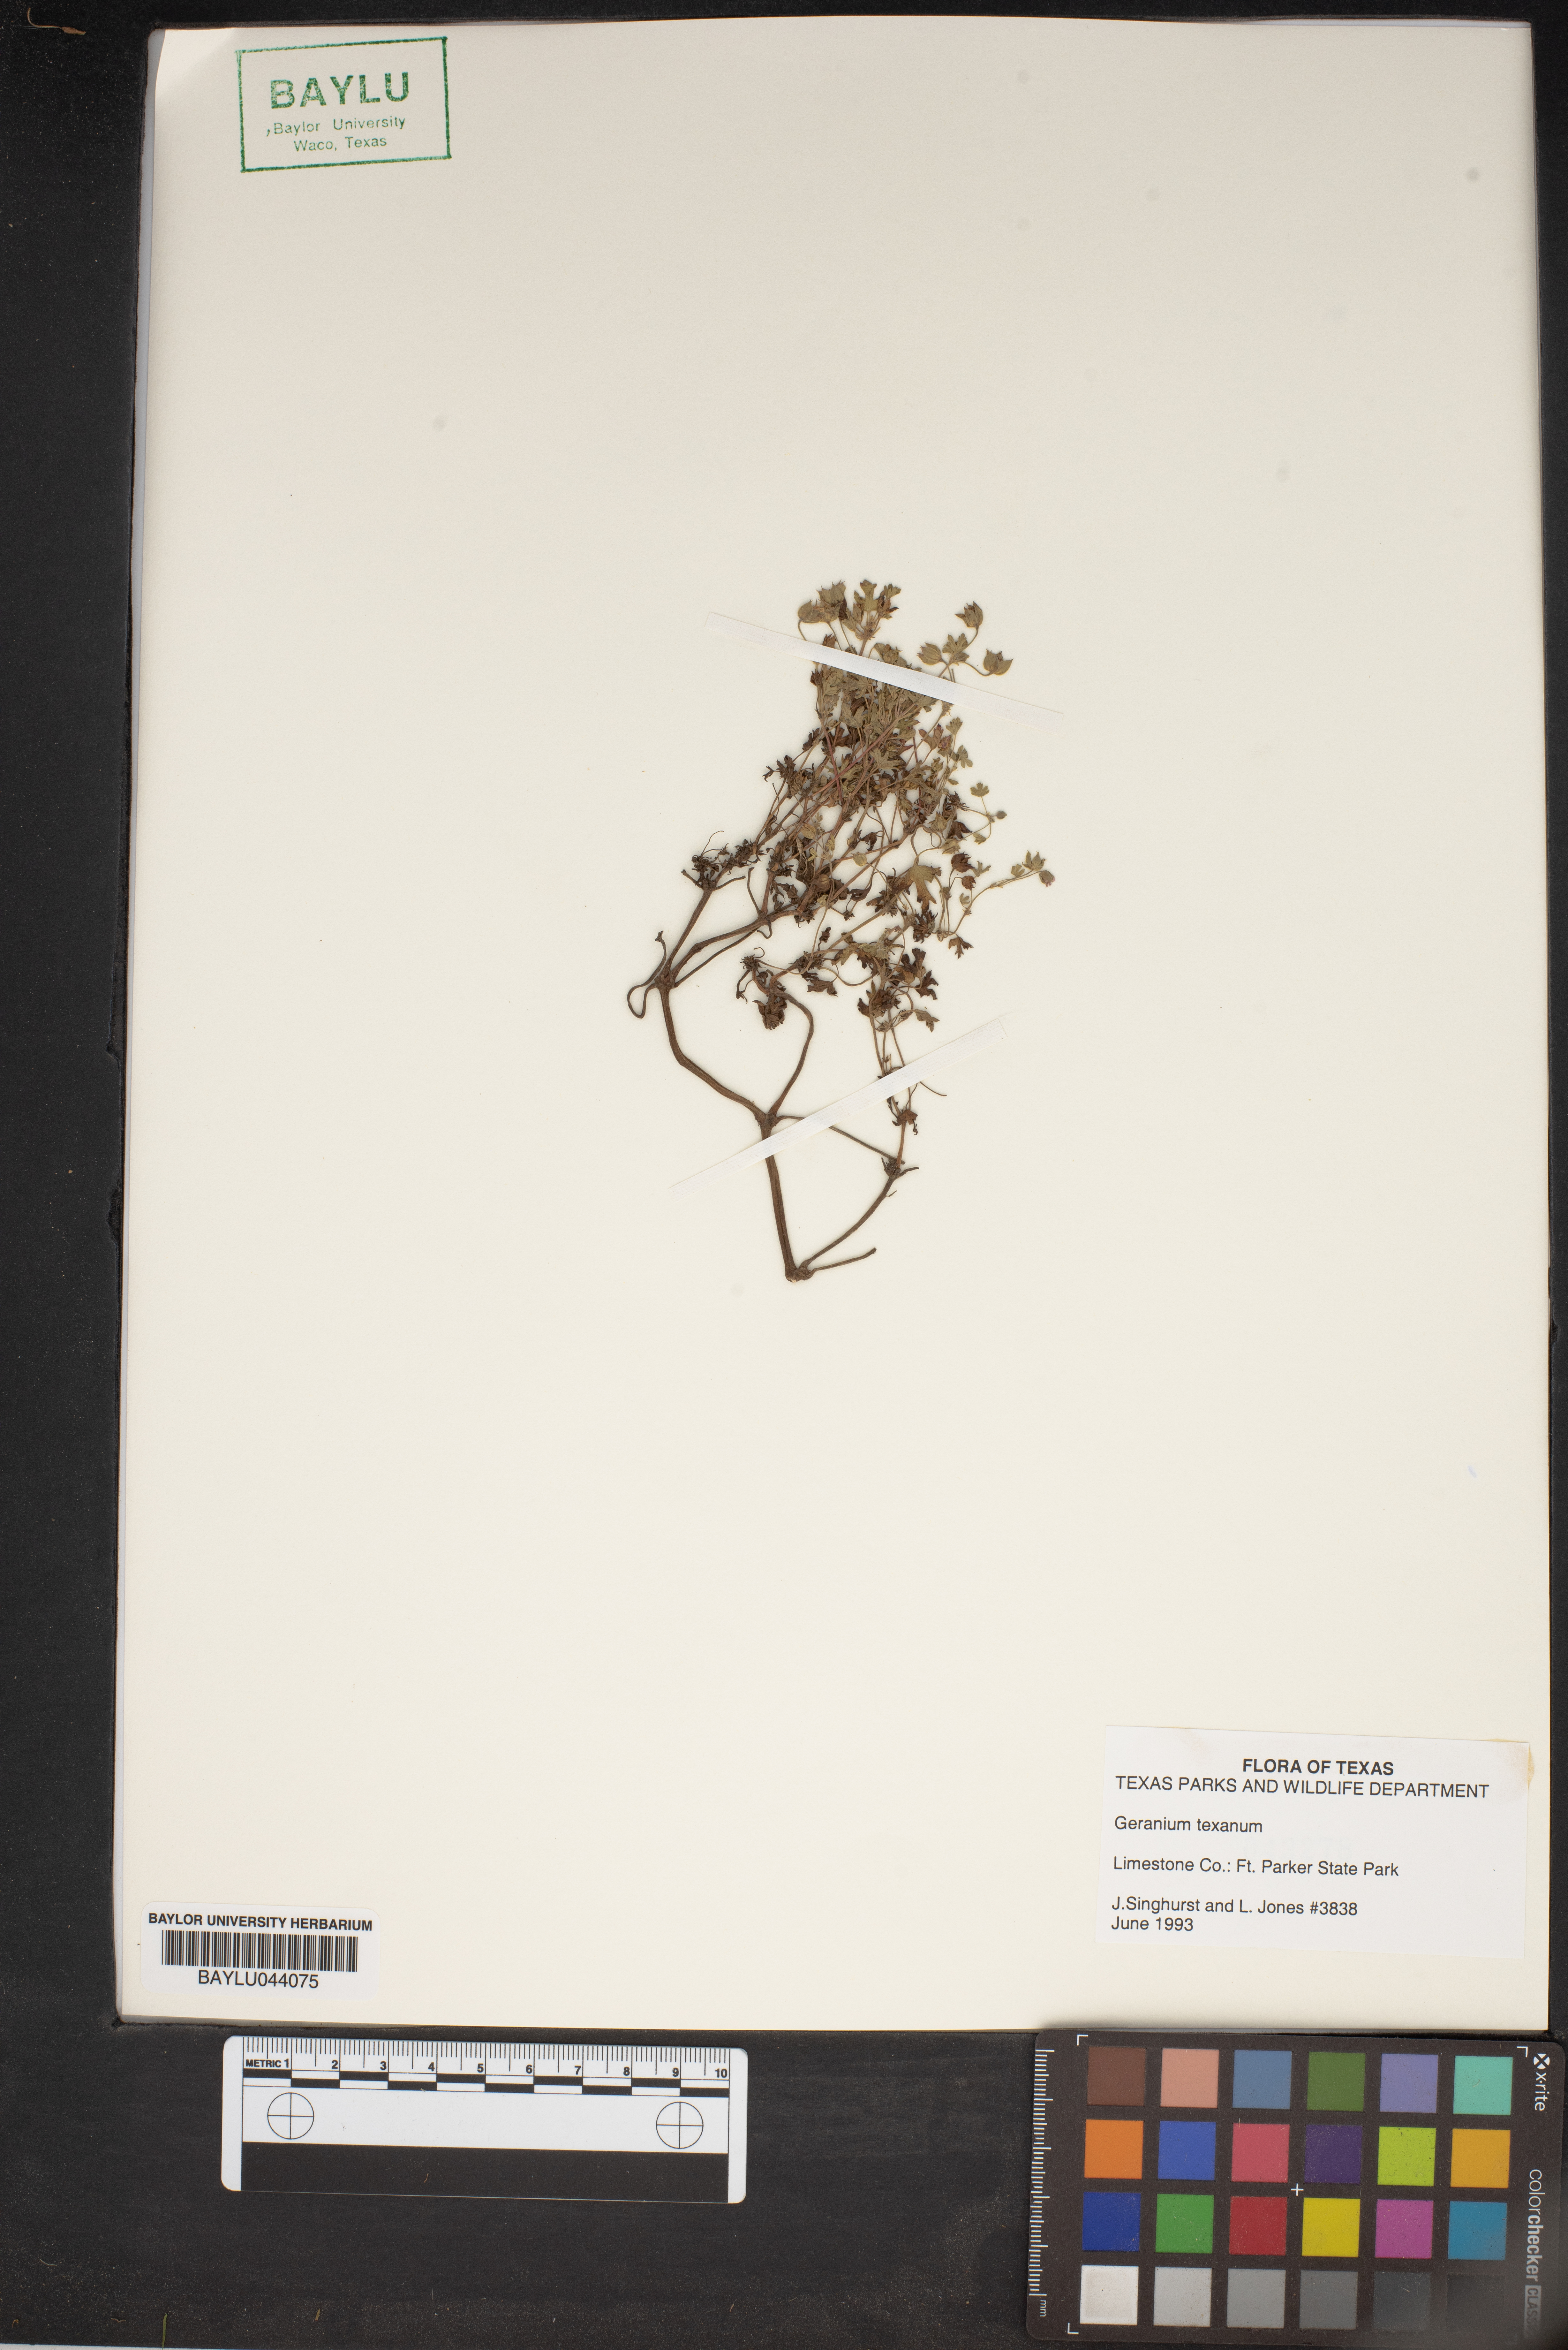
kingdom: Plantae
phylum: Tracheophyta
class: Magnoliopsida
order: Geraniales
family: Geraniaceae
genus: Geranium
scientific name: Geranium texanum
